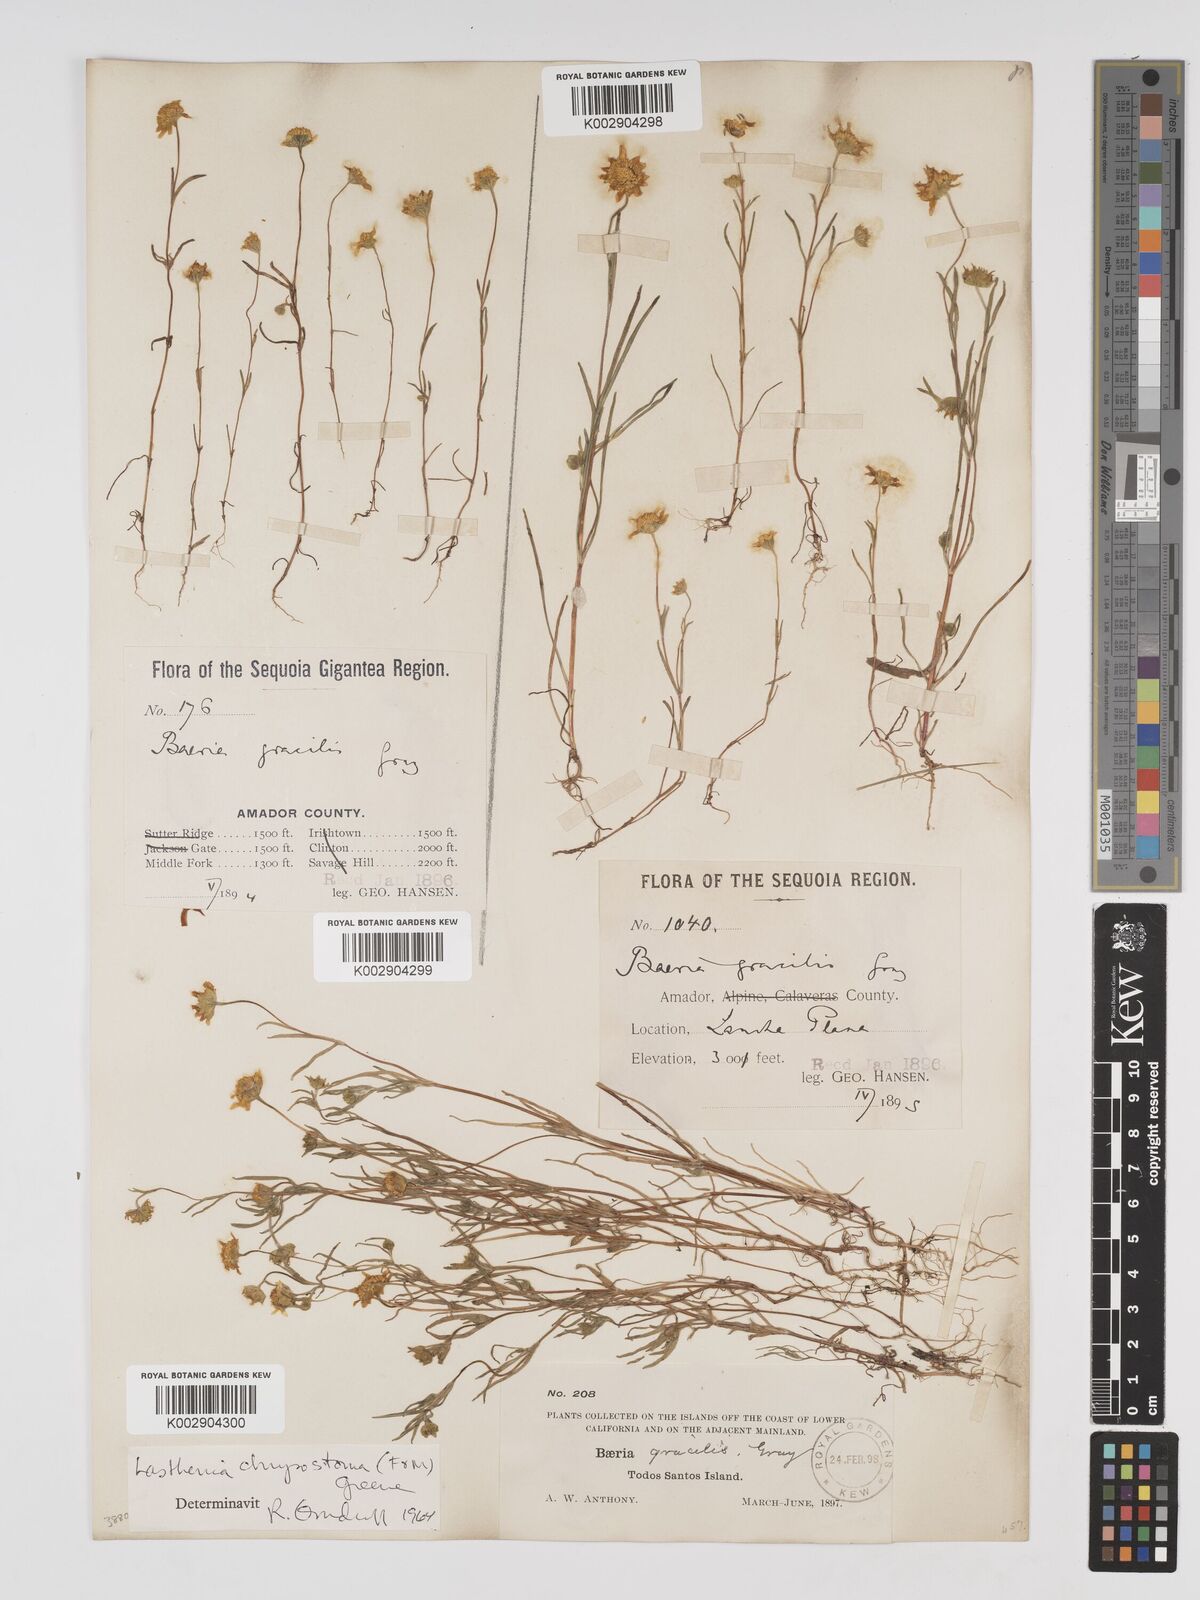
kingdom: Plantae
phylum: Tracheophyta
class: Magnoliopsida
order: Asterales
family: Asteraceae
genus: Lasthenia
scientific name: Lasthenia californica
